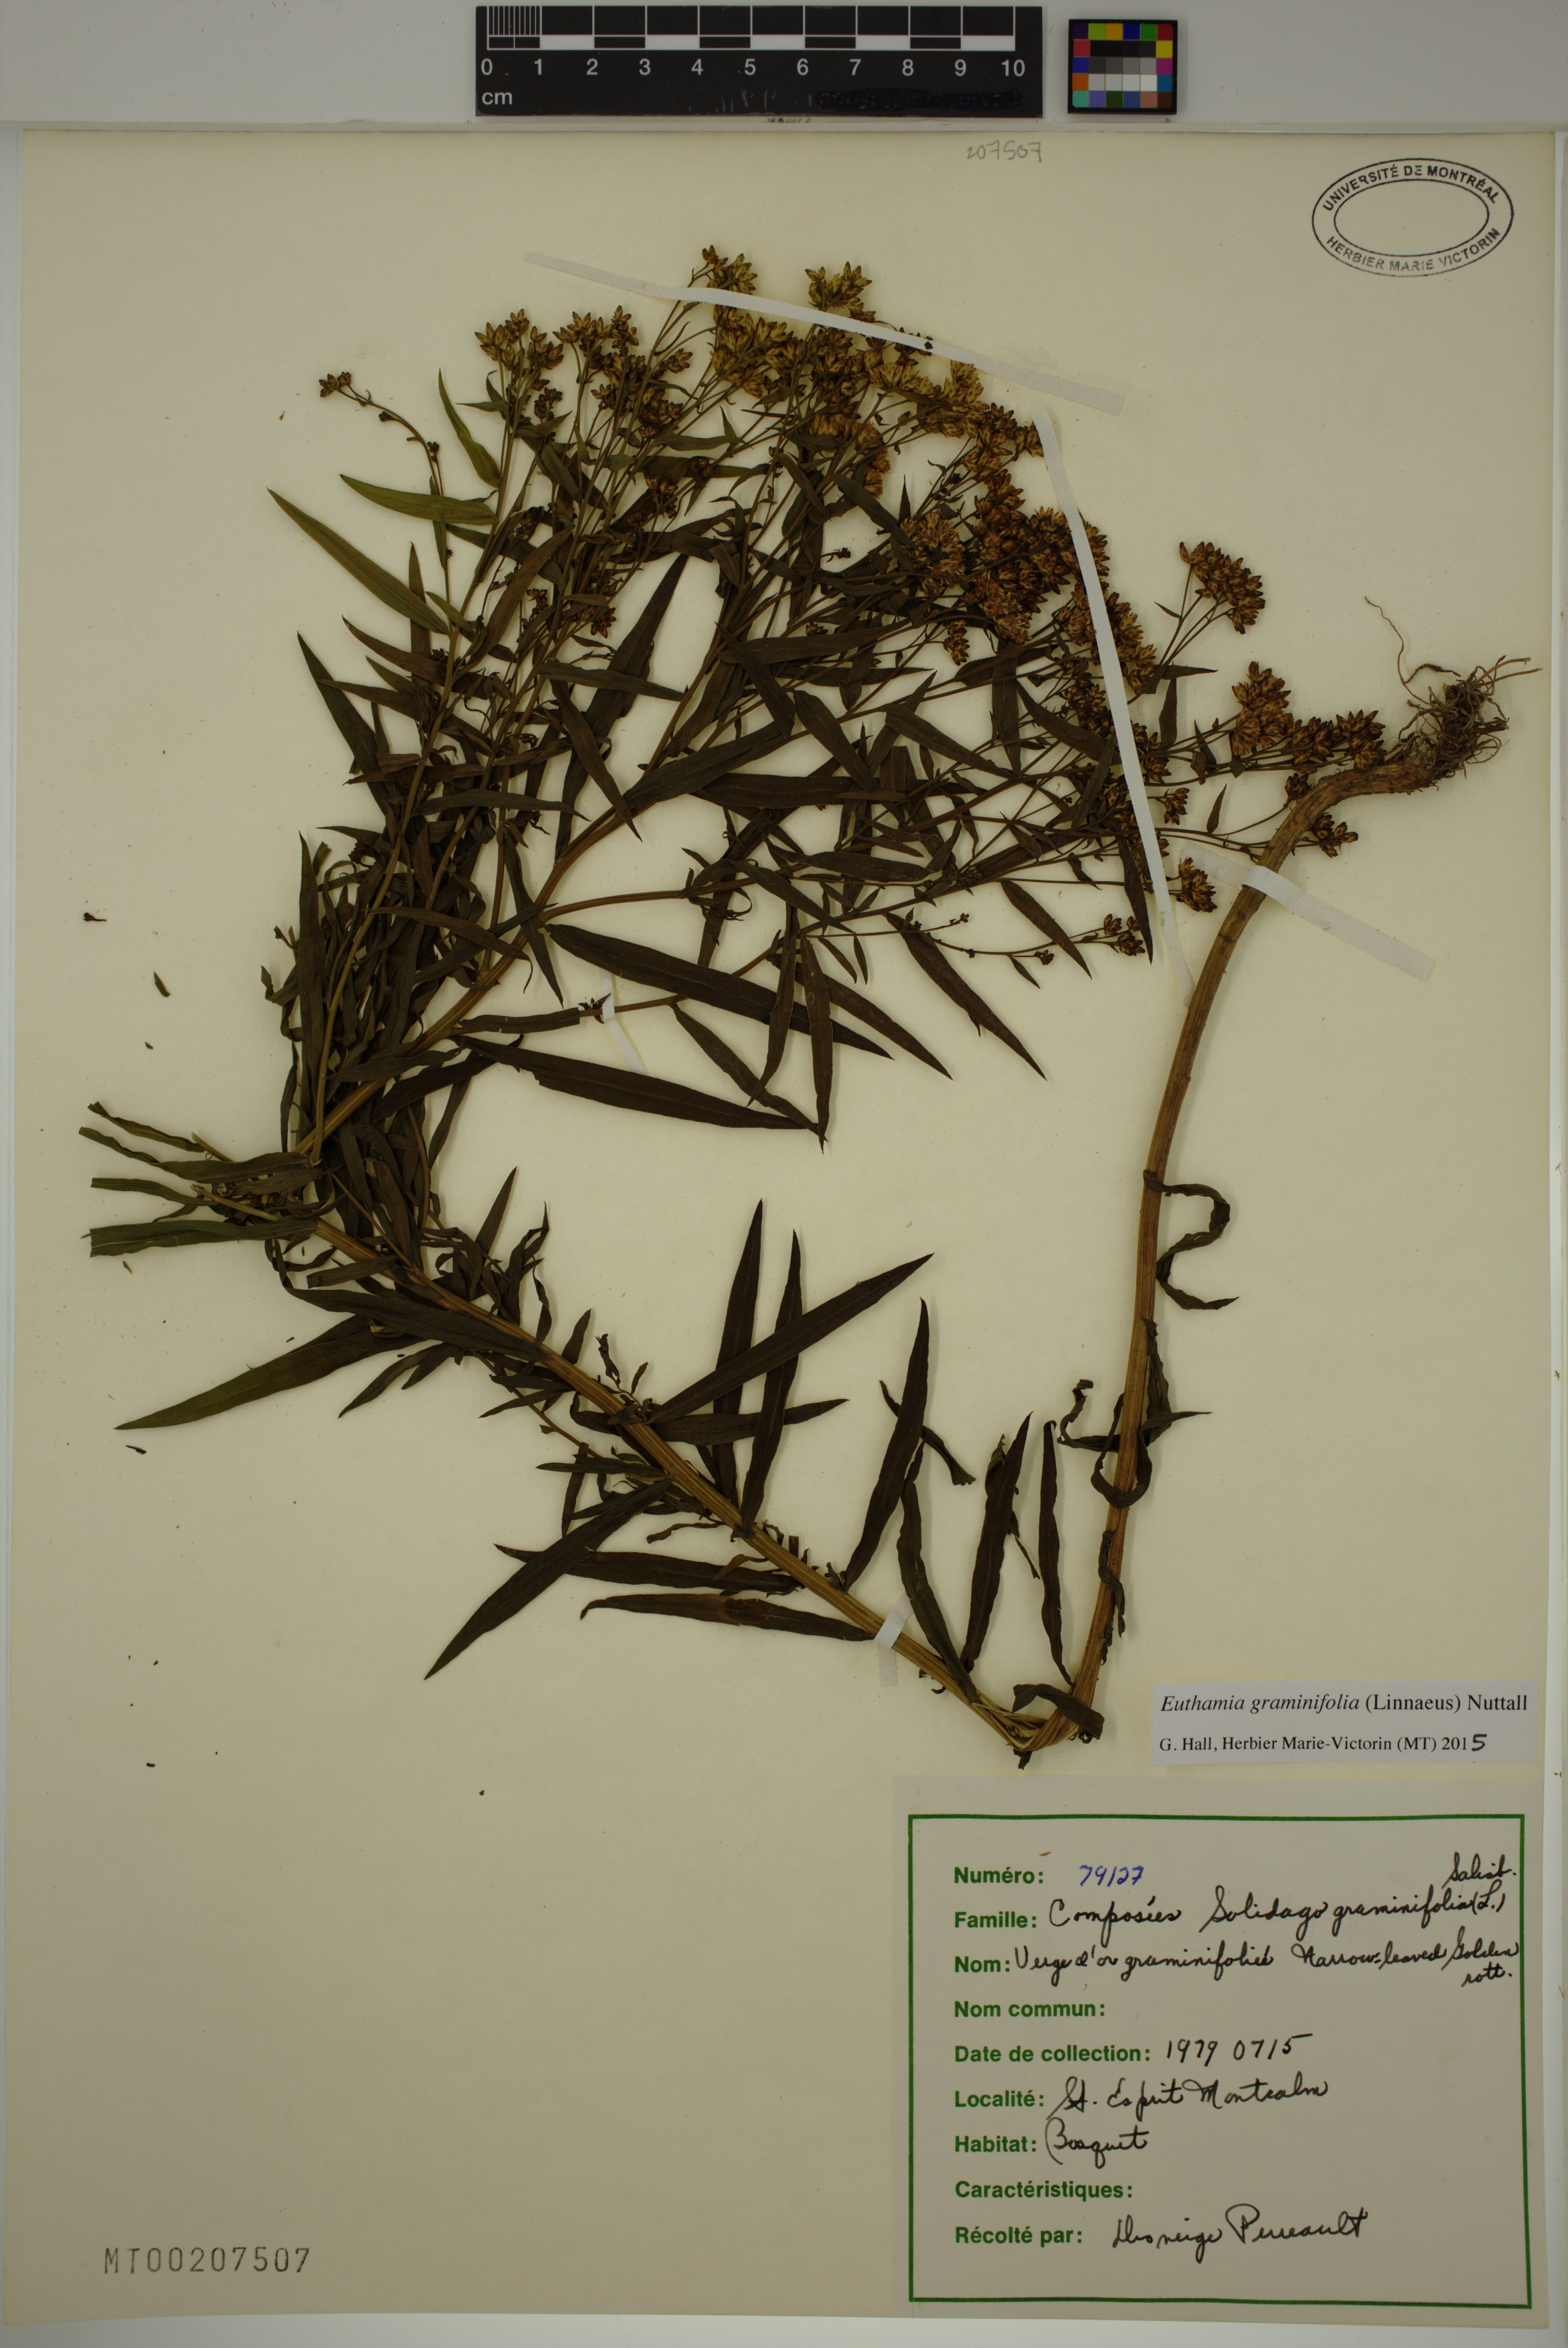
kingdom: Plantae
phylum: Tracheophyta
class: Magnoliopsida
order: Asterales
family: Asteraceae
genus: Euthamia
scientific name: Euthamia graminifolia
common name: Common goldentop
